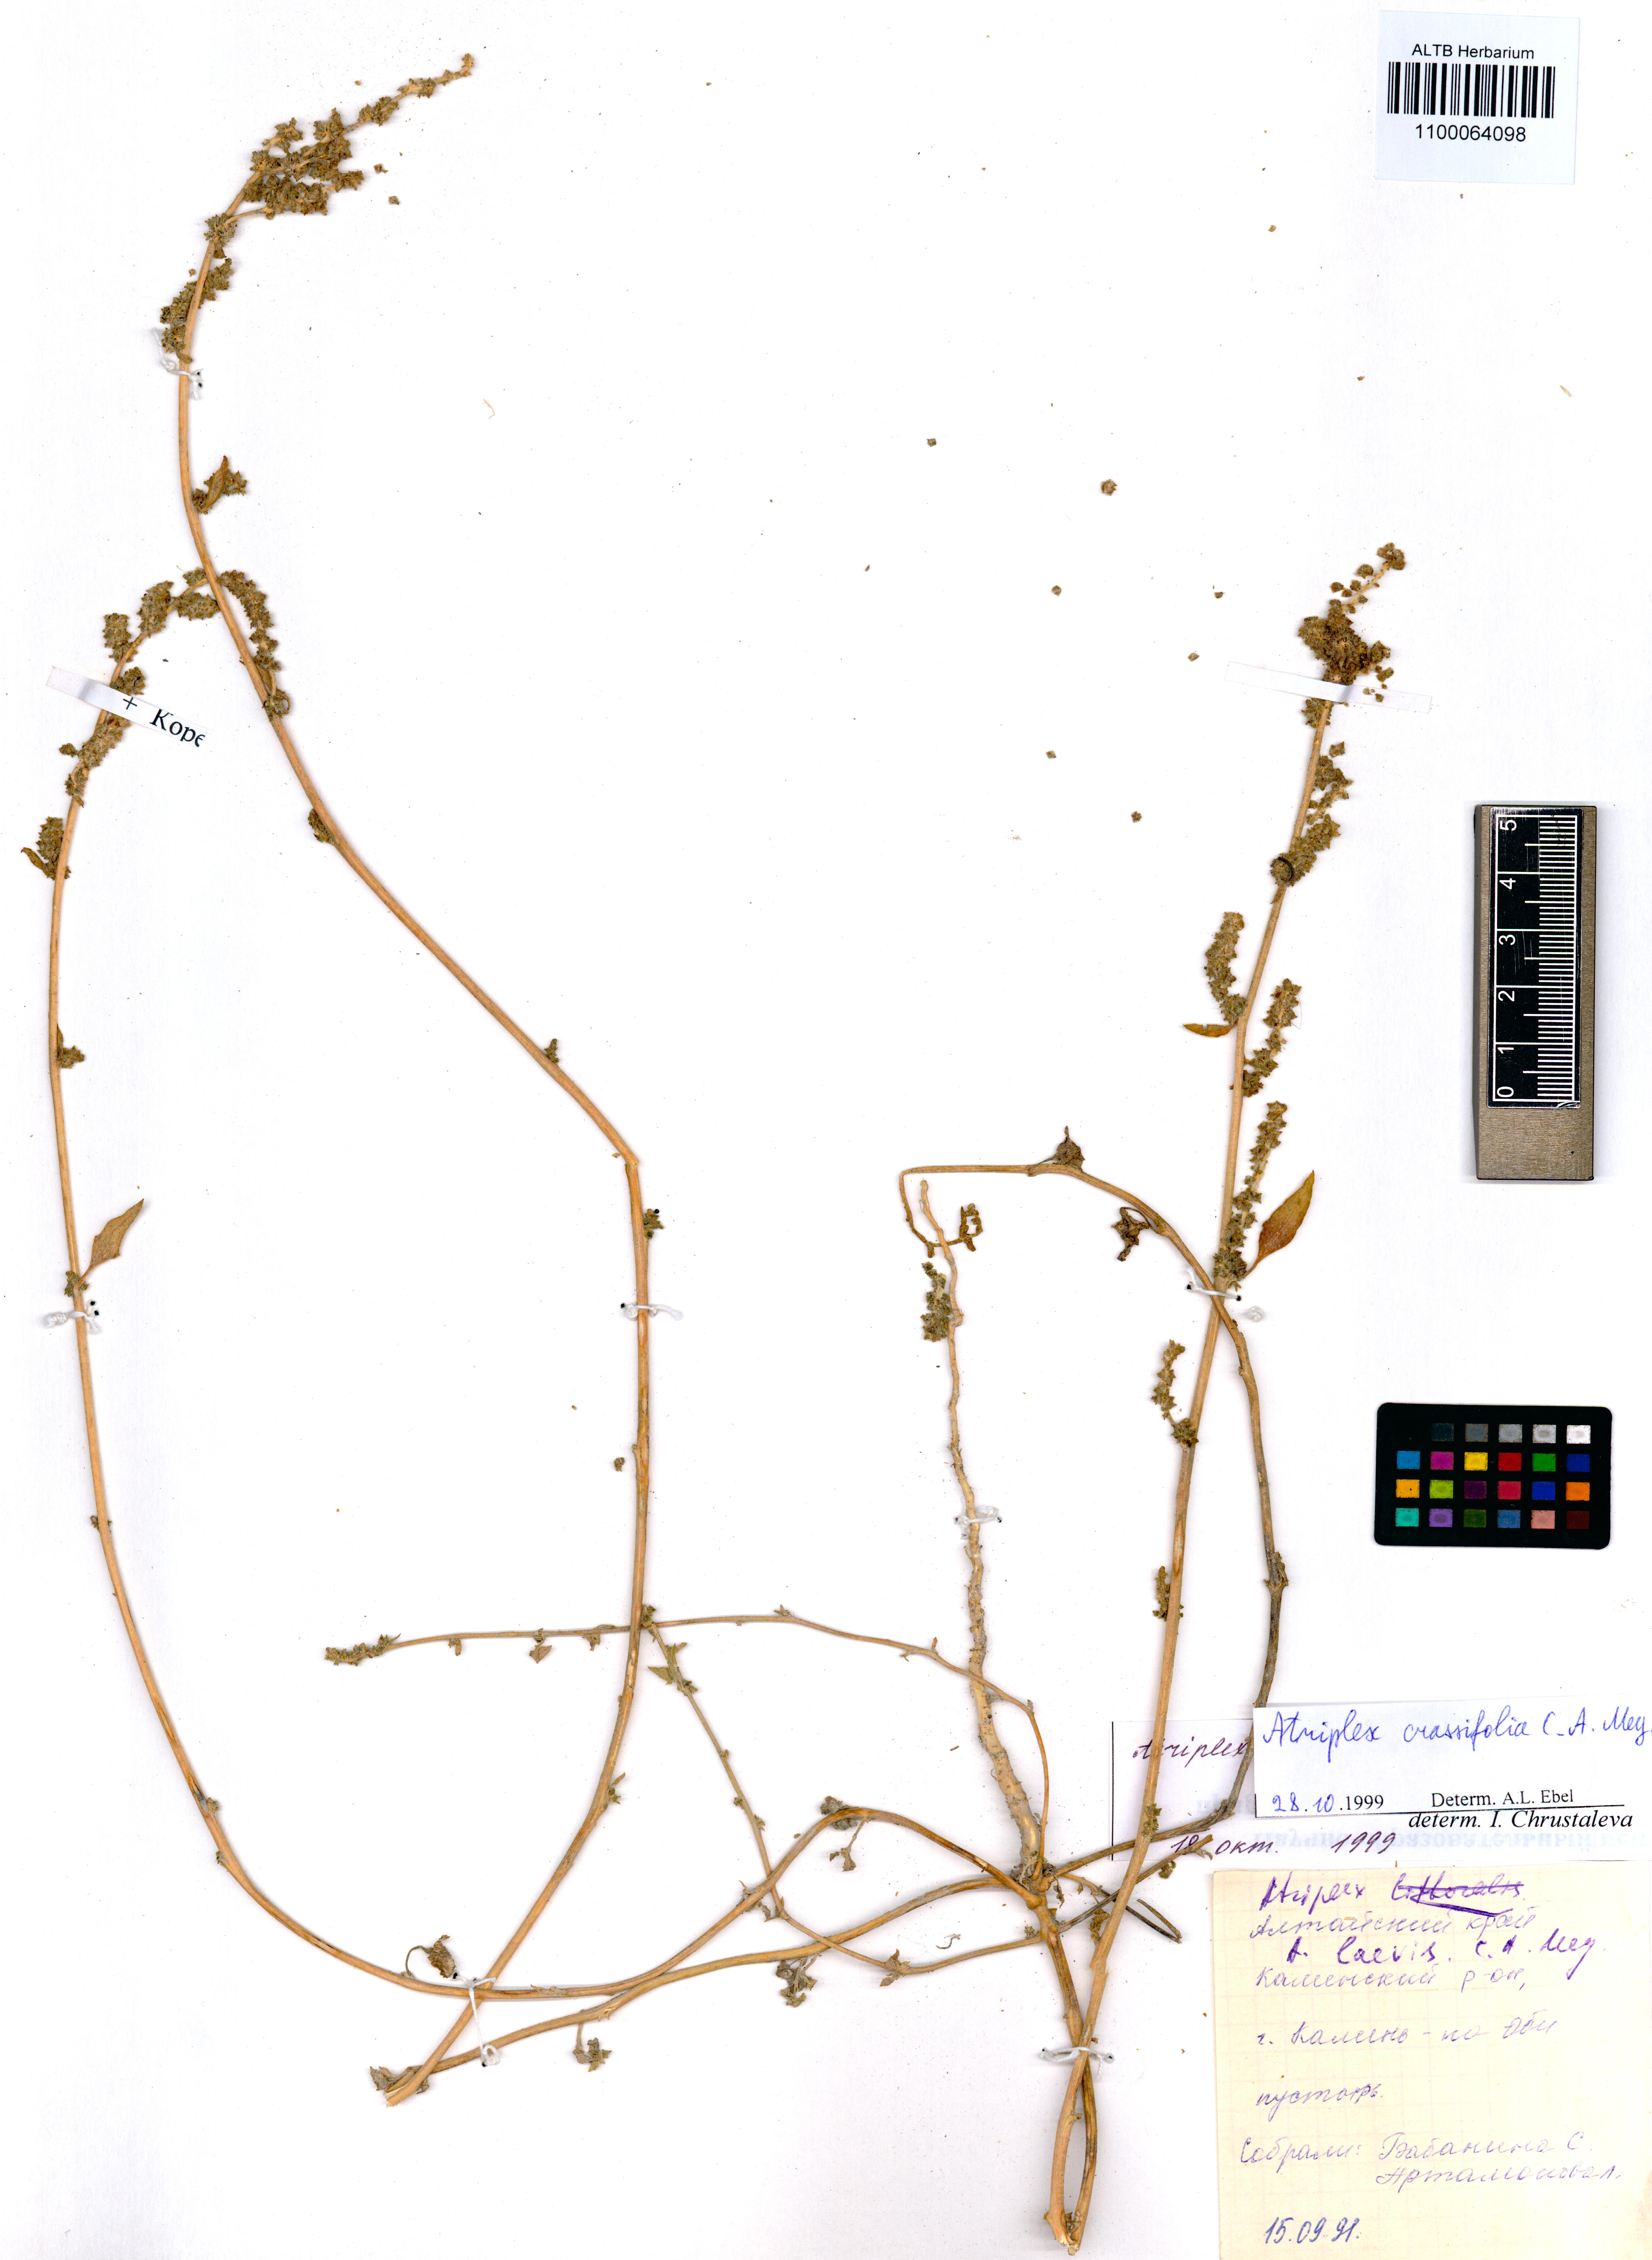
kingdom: Plantae
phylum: Tracheophyta
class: Magnoliopsida
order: Caryophyllales
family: Amaranthaceae
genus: Atriplex
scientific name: Atriplex crassifolia
